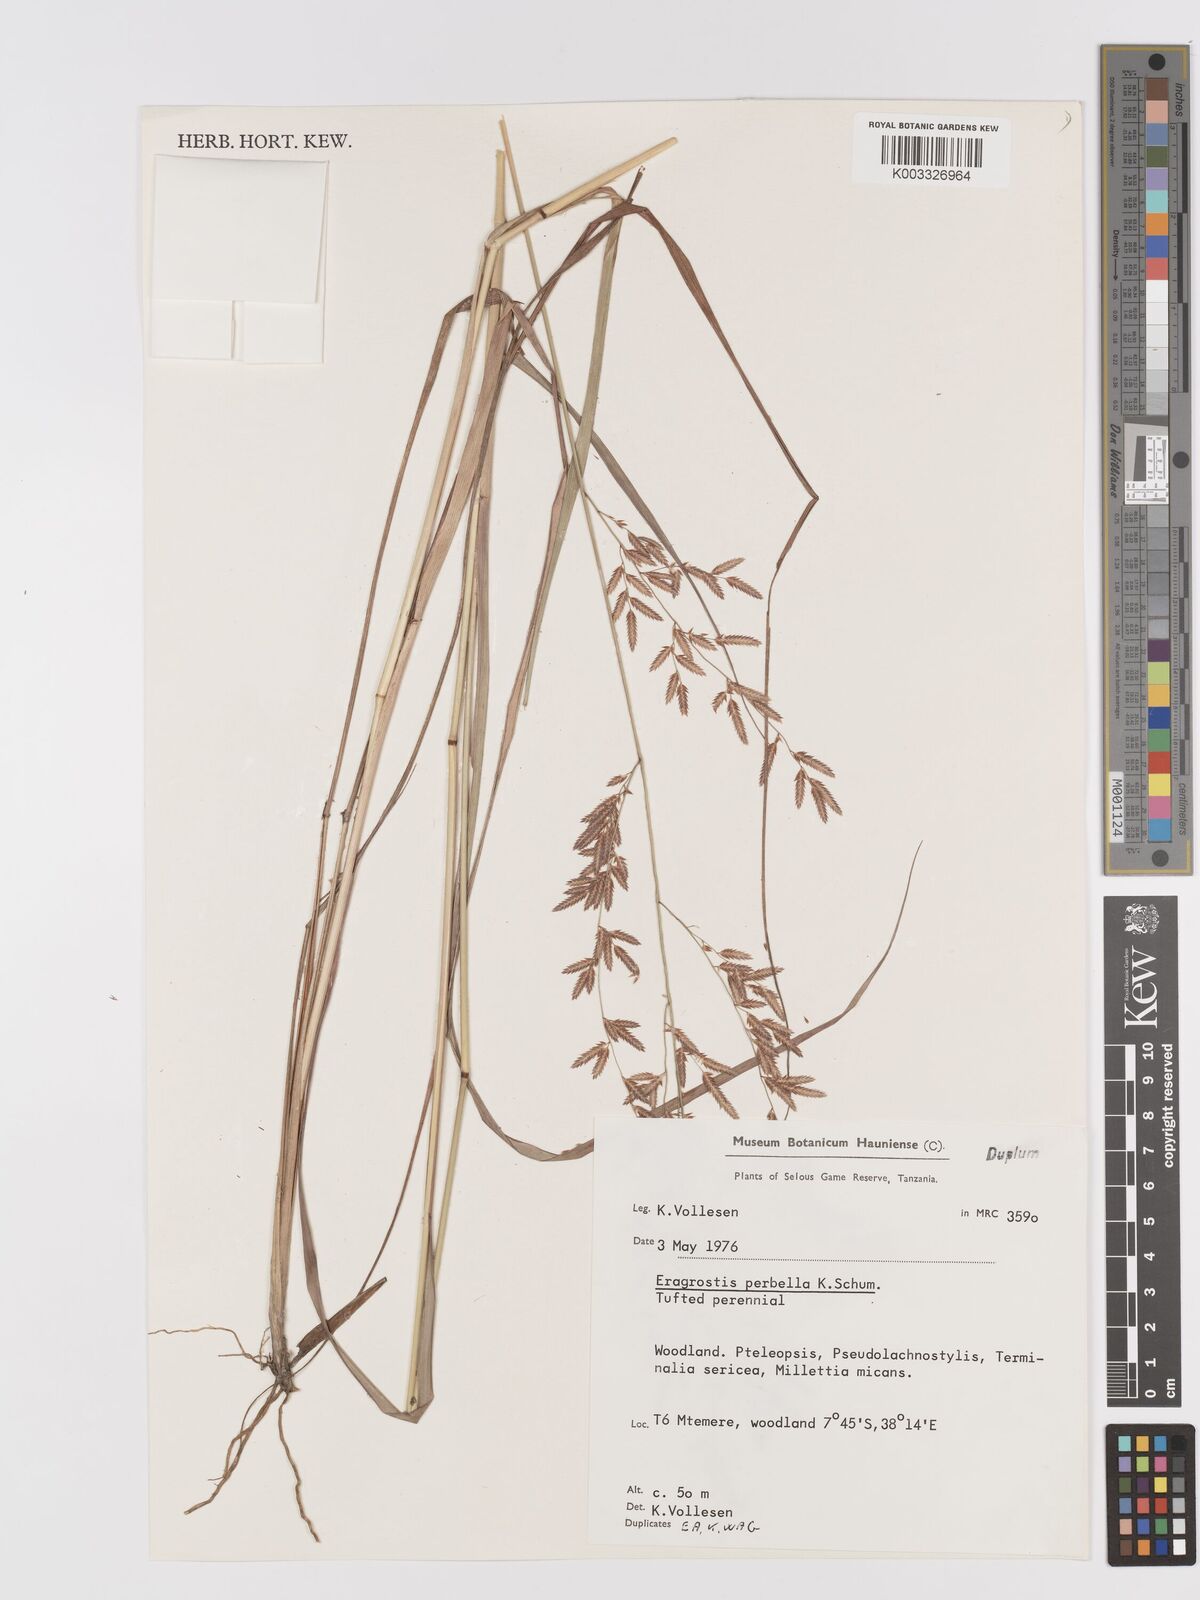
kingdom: Plantae
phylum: Tracheophyta
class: Liliopsida
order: Poales
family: Poaceae
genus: Eragrostis
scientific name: Eragrostis perbella
